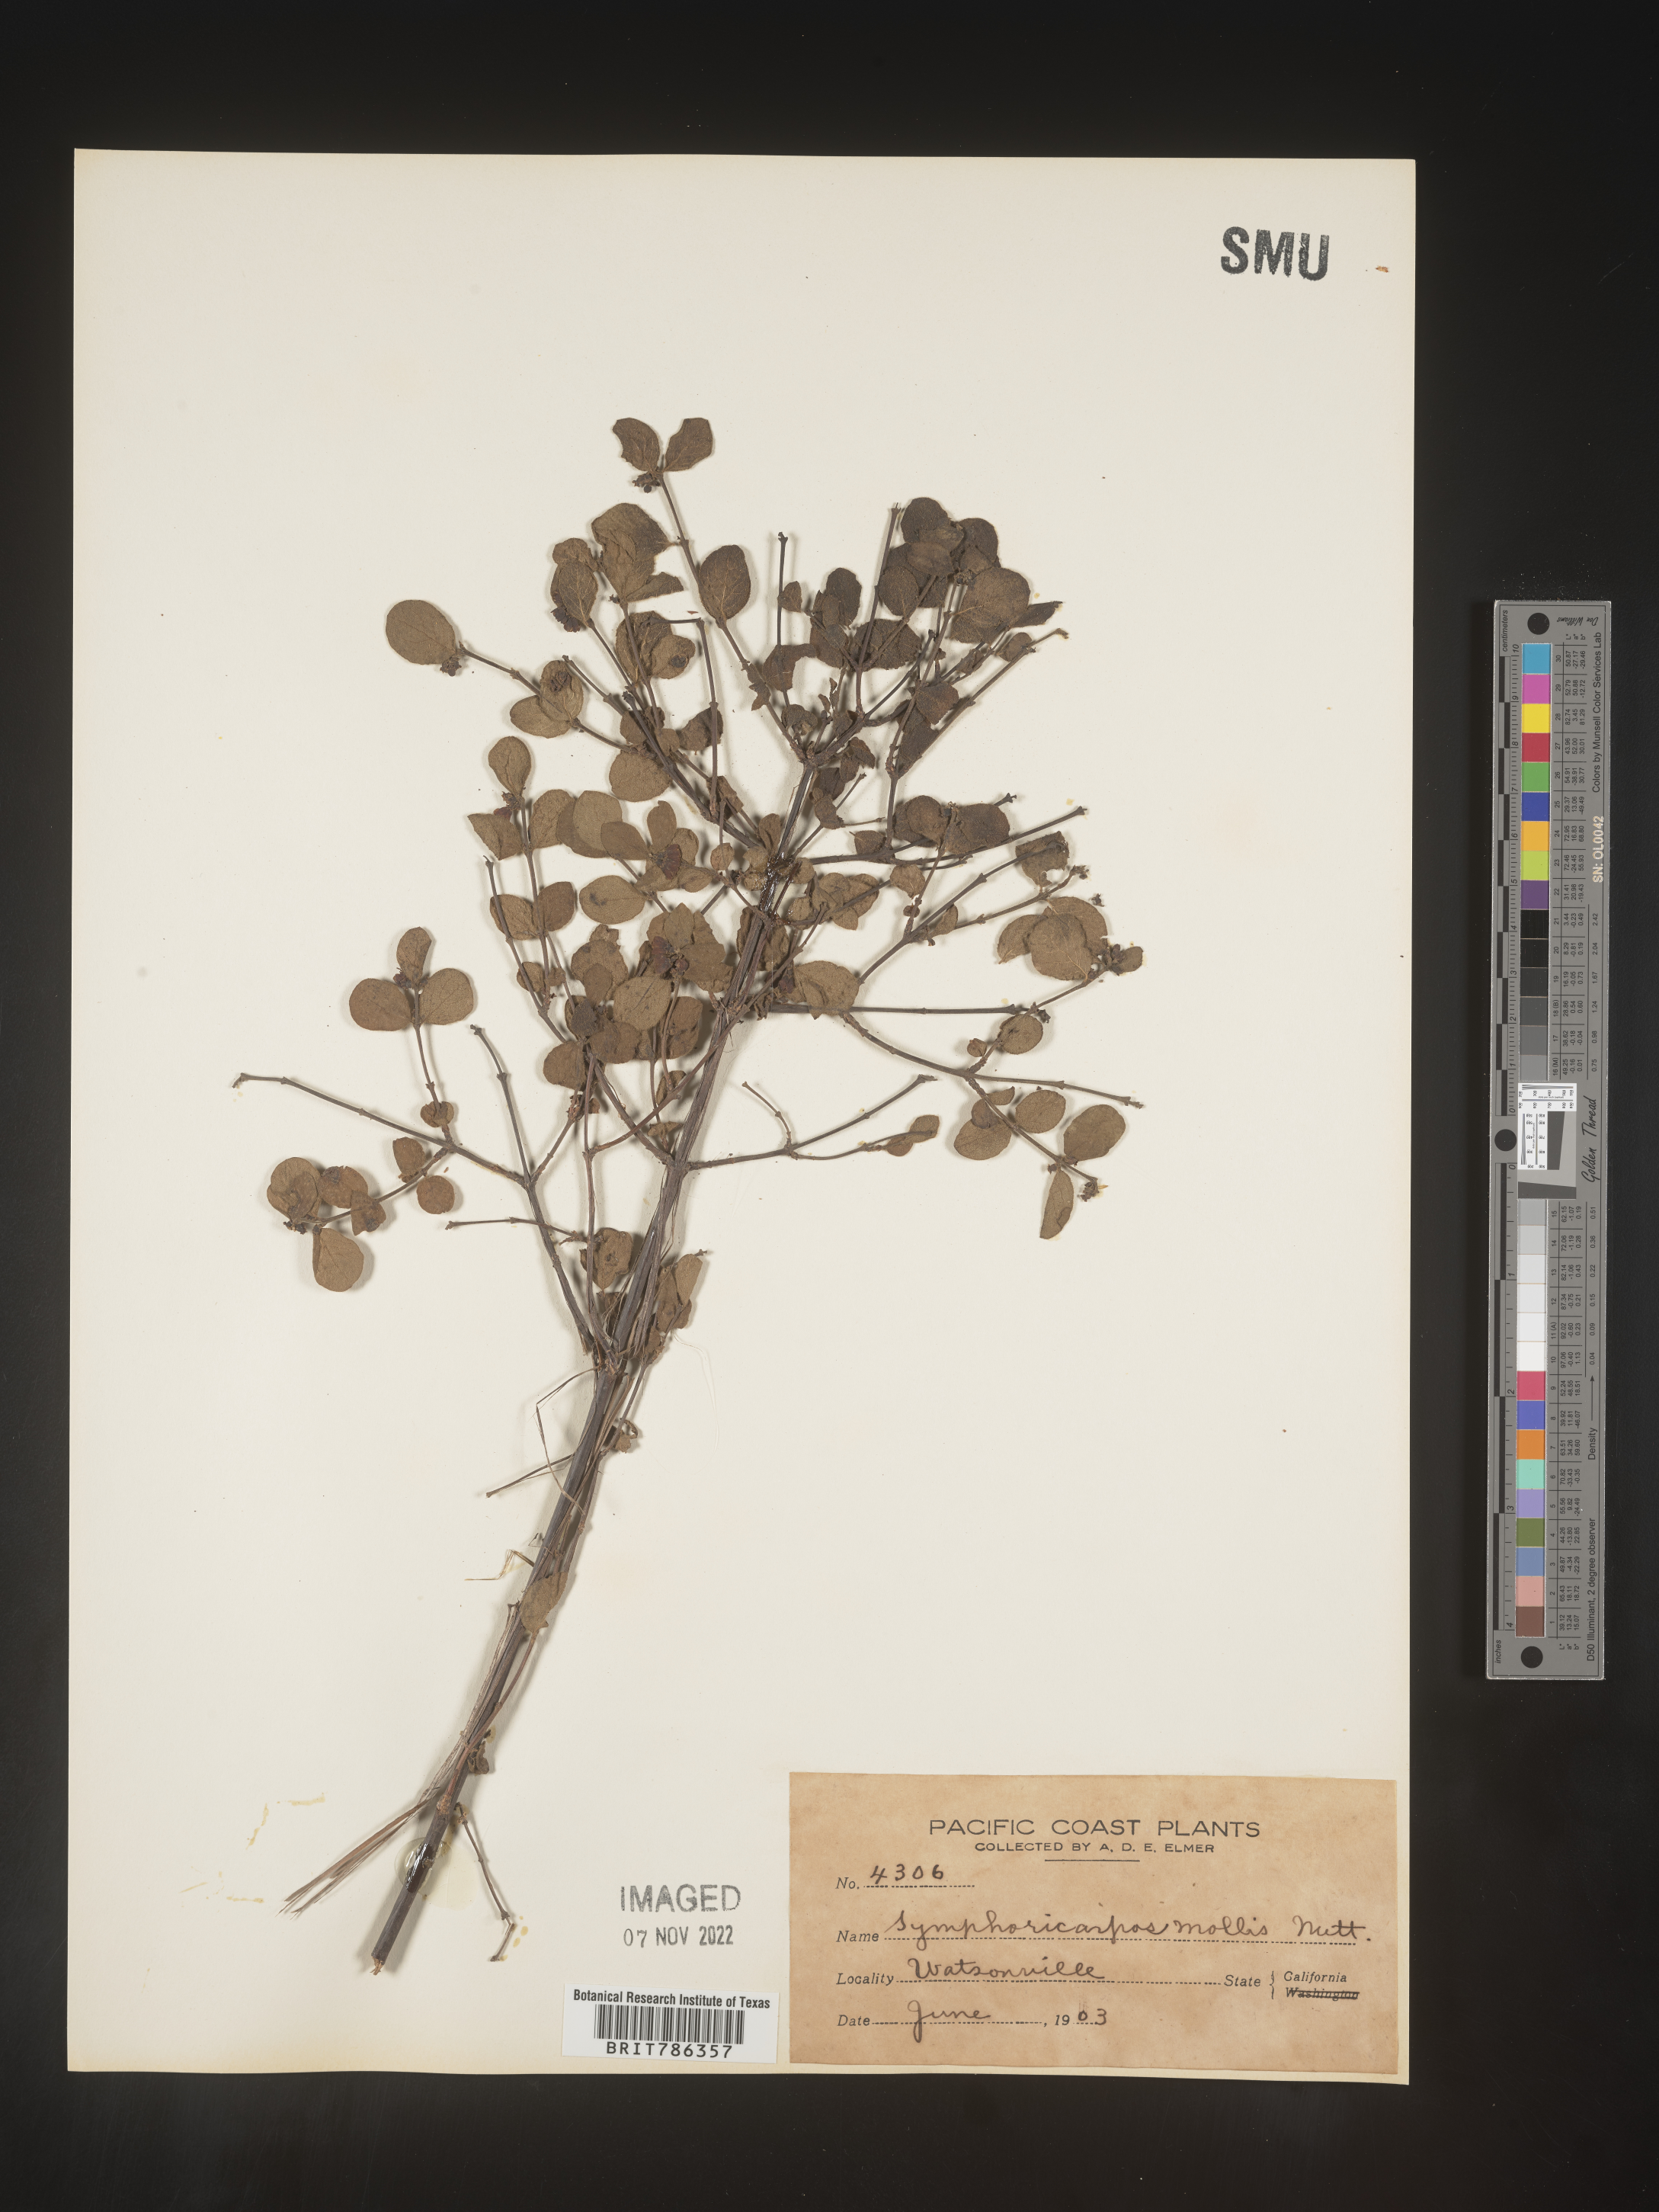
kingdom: Plantae
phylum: Tracheophyta
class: Magnoliopsida
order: Dipsacales
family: Caprifoliaceae
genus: Symphoricarpos
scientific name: Symphoricarpos
